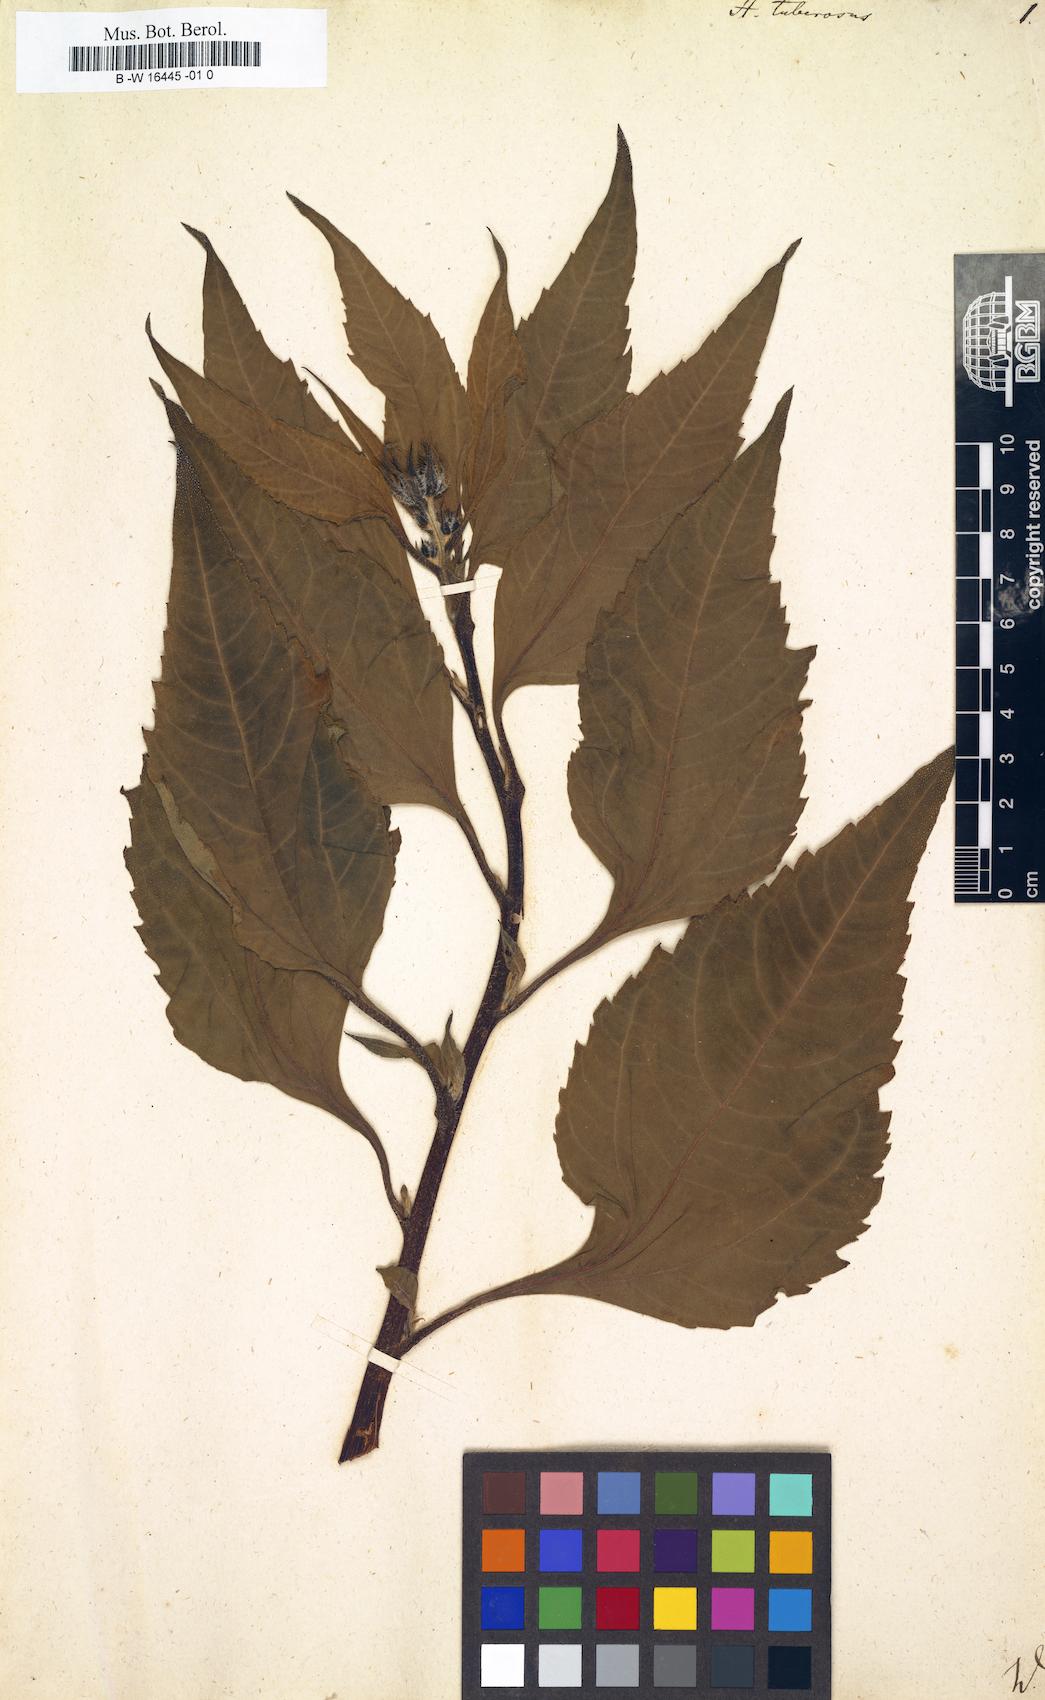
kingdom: Plantae
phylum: Tracheophyta
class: Magnoliopsida
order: Asterales
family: Asteraceae
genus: Helianthus
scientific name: Helianthus tuberosus
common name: Jerusalem artichoke
